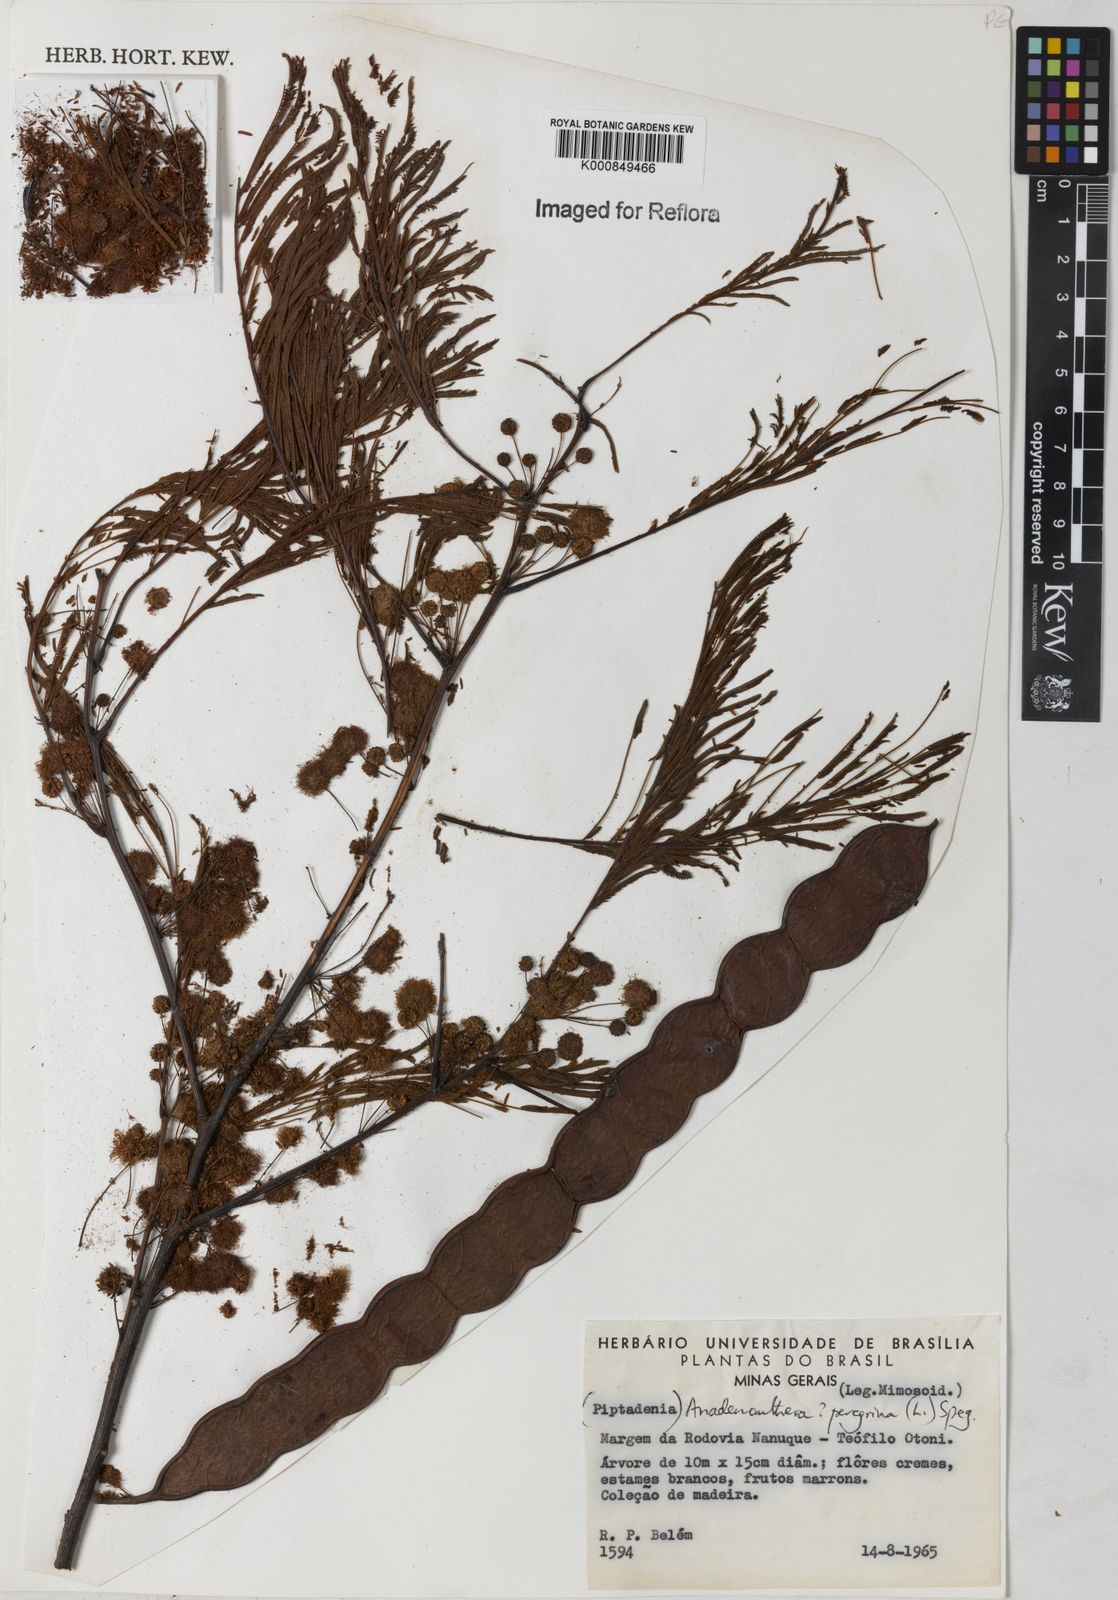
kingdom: Plantae
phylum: Tracheophyta
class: Magnoliopsida
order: Fabales
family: Fabaceae
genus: Anadenanthera
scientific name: Anadenanthera peregrina
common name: Cohoba
